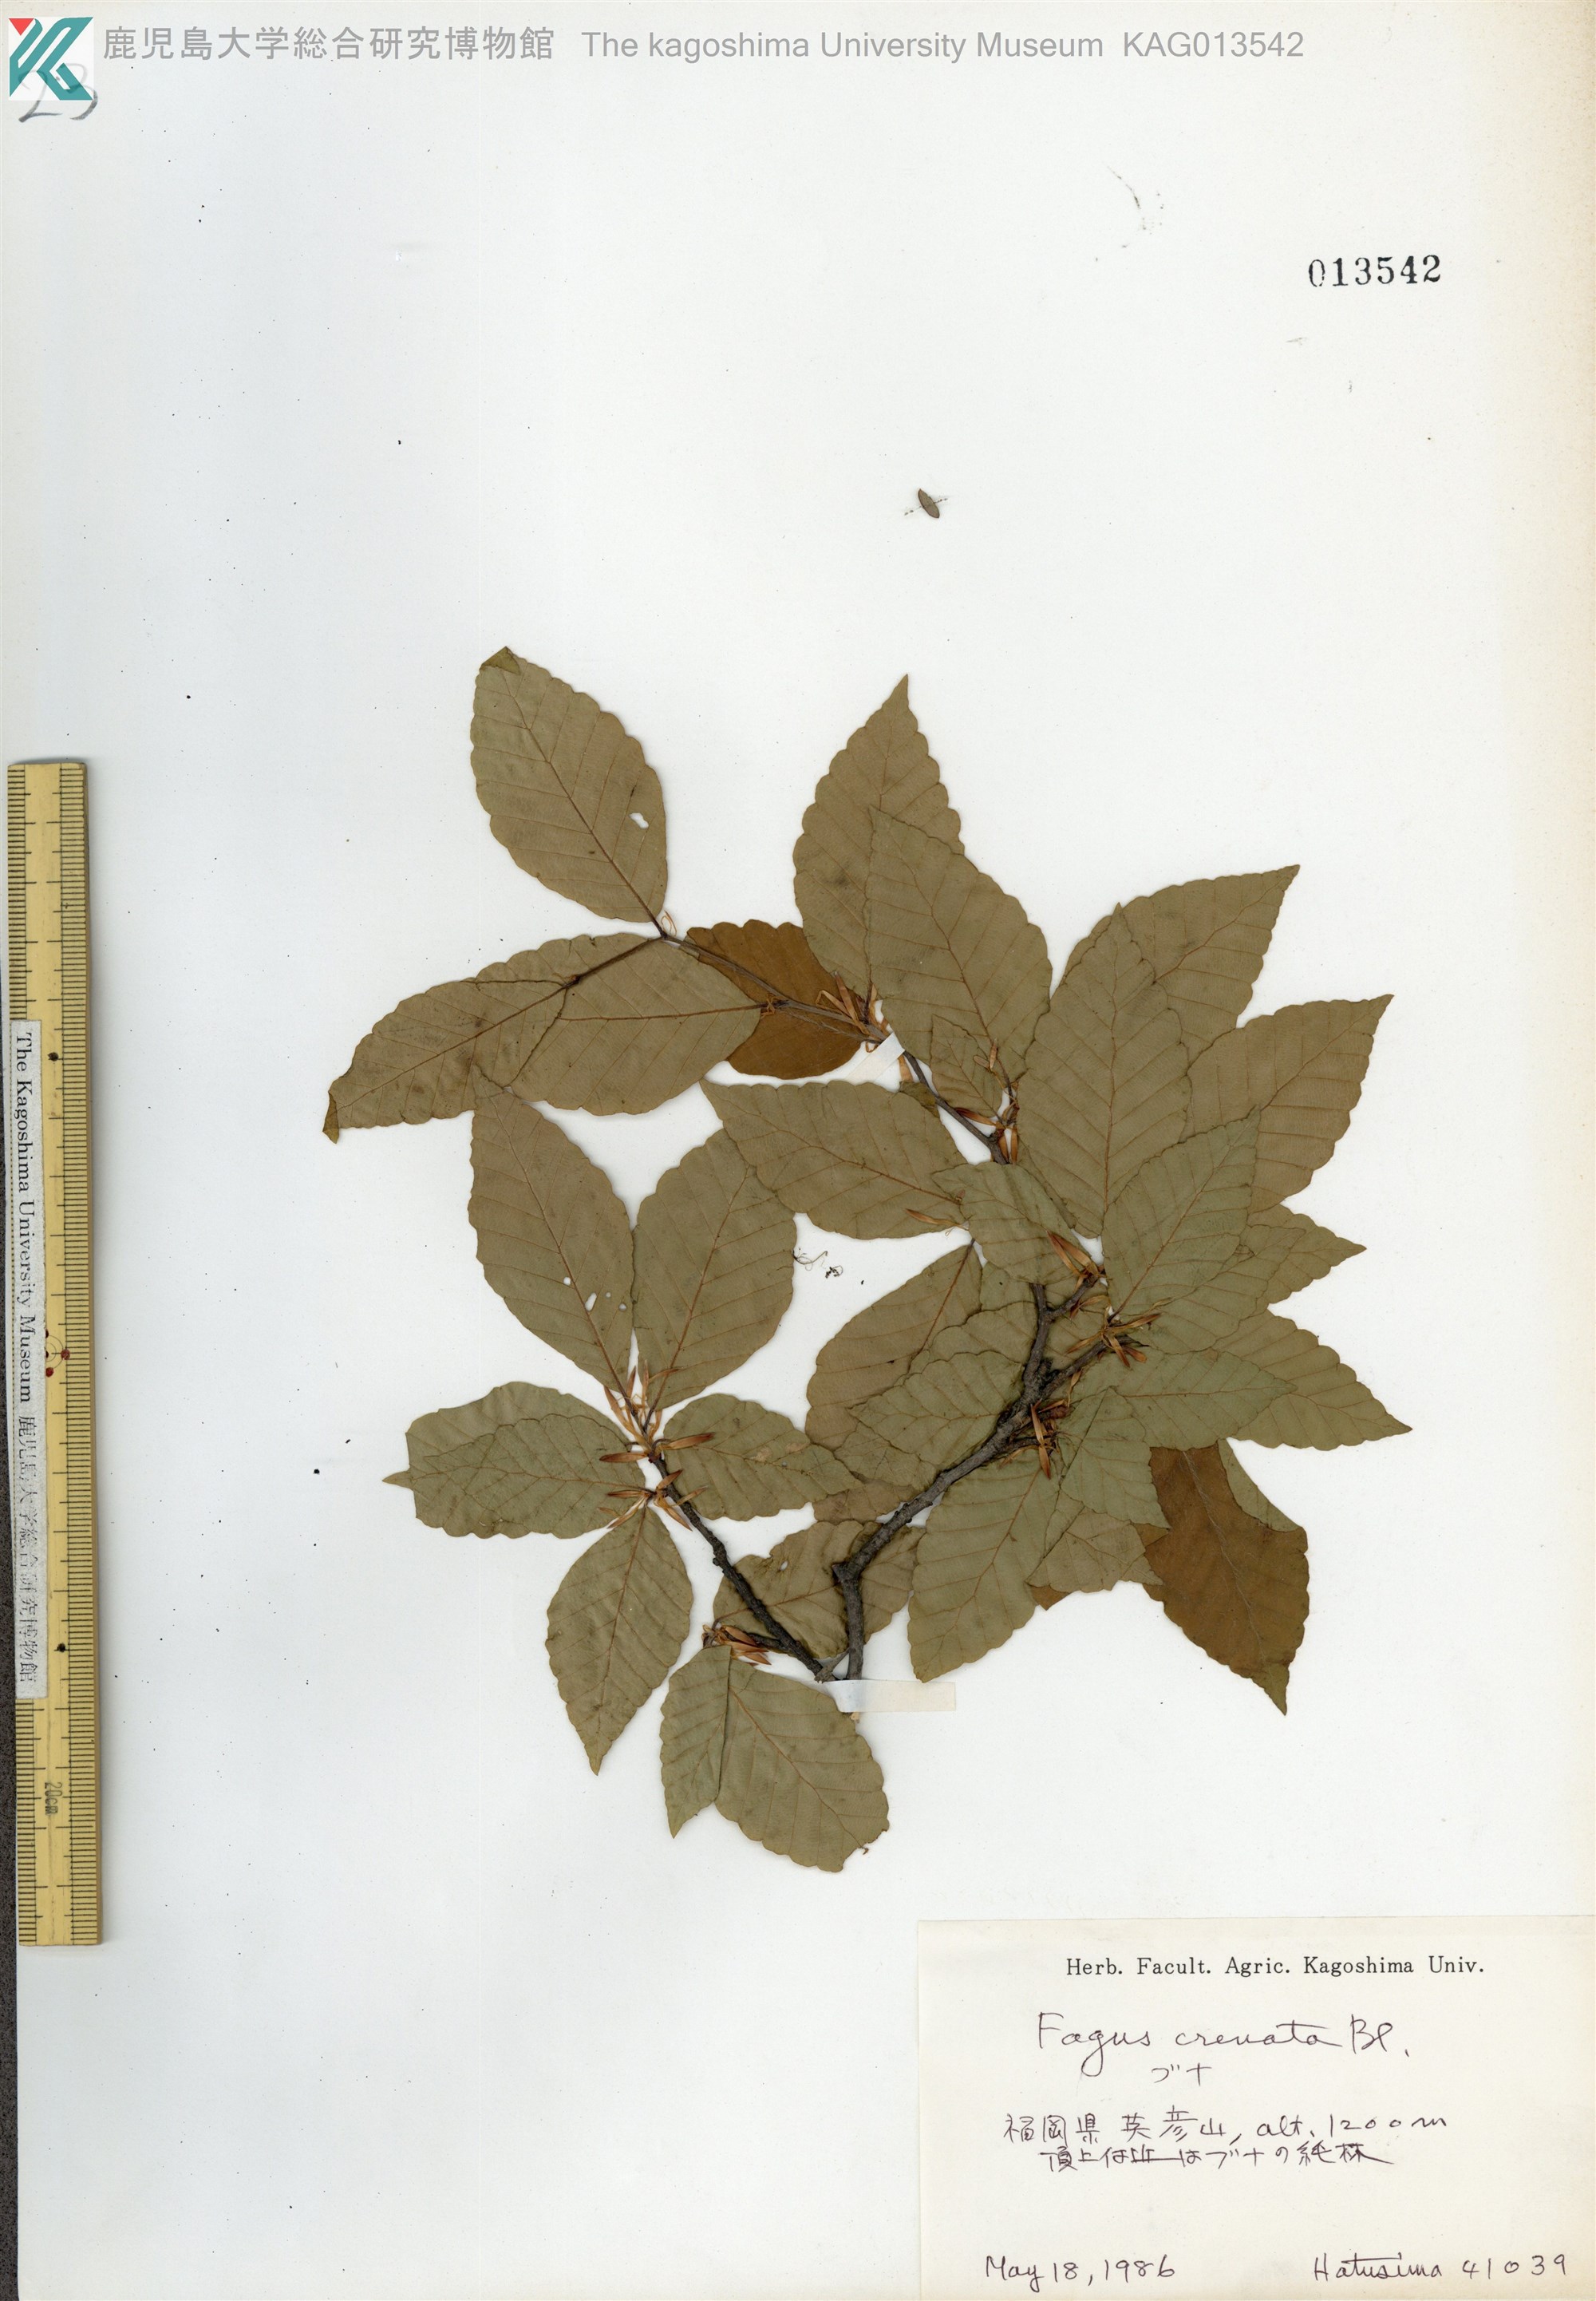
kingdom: Plantae
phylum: Tracheophyta
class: Magnoliopsida
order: Fagales
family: Fagaceae
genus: Fagus
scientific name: Fagus crenata
